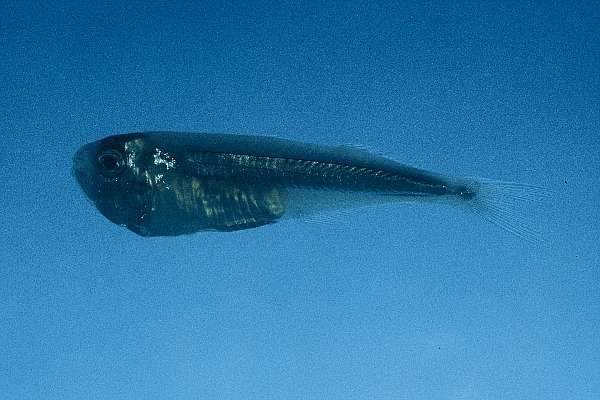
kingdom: Animalia
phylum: Chordata
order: Atheriniformes
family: Isonidae
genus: Iso
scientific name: Iso natalensis
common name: Surf sprite
